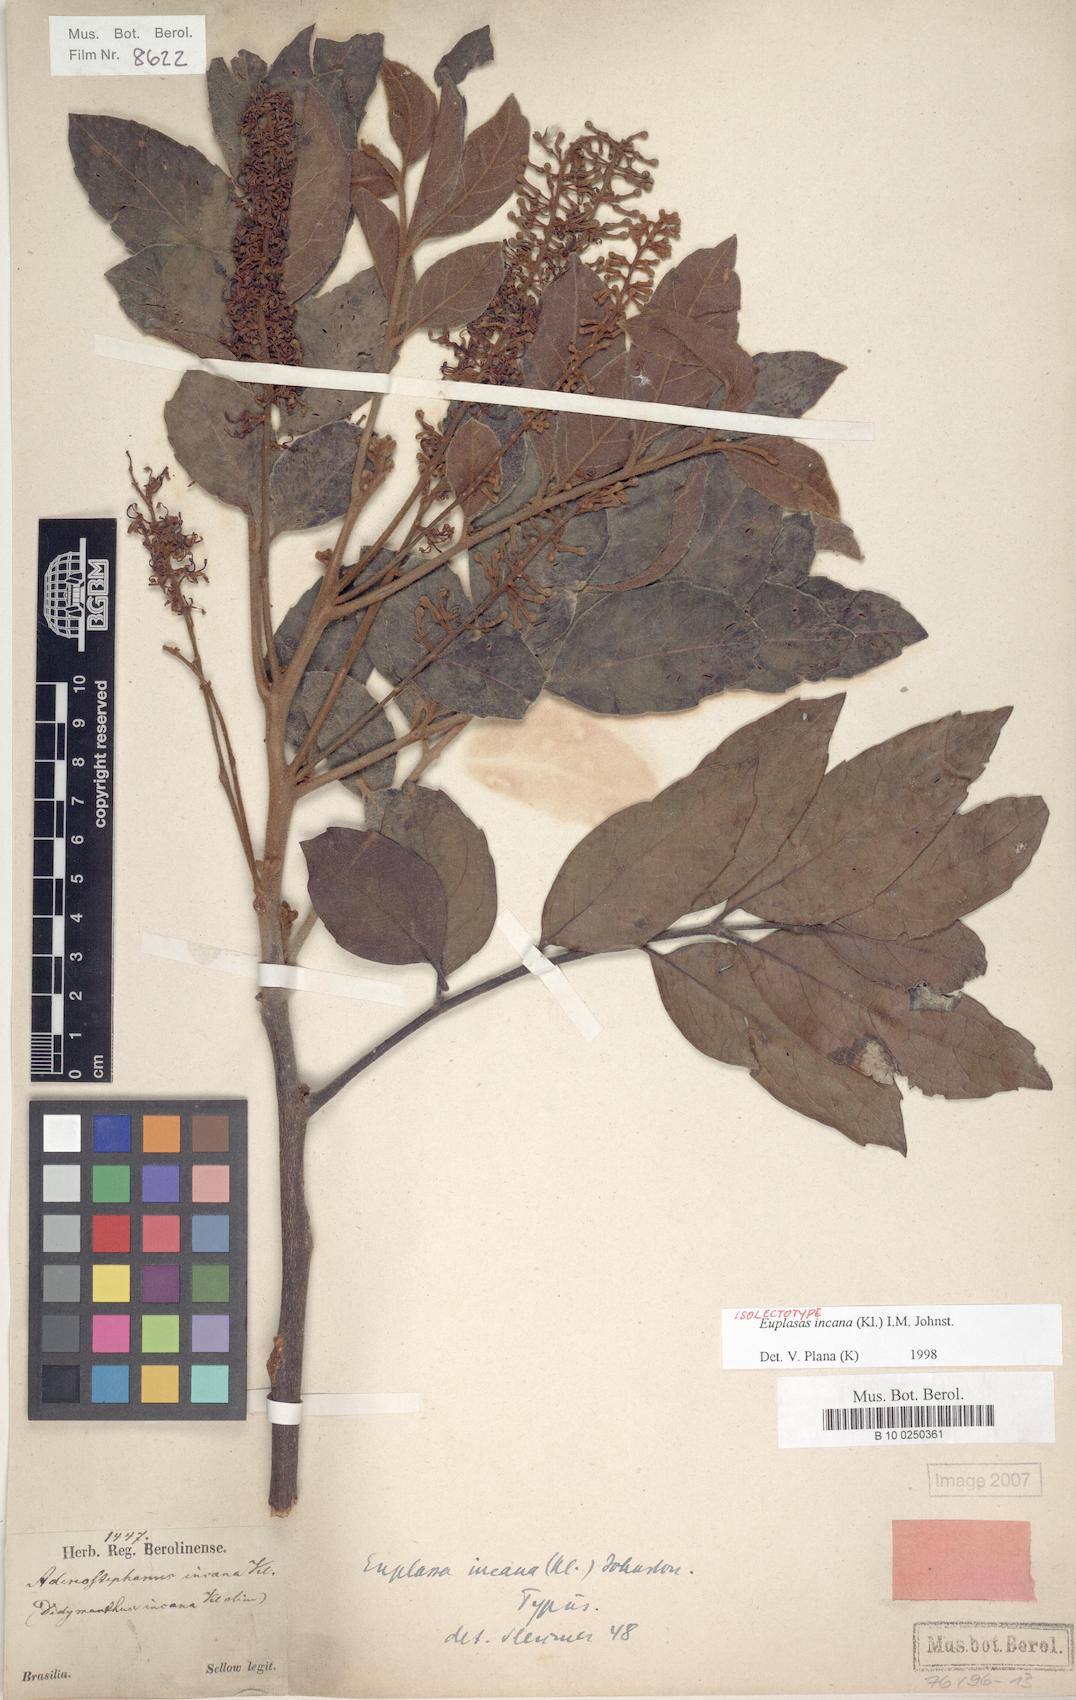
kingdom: Plantae
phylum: Tracheophyta
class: Magnoliopsida
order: Proteales
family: Proteaceae
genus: Euplassa
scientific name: Euplassa incana
